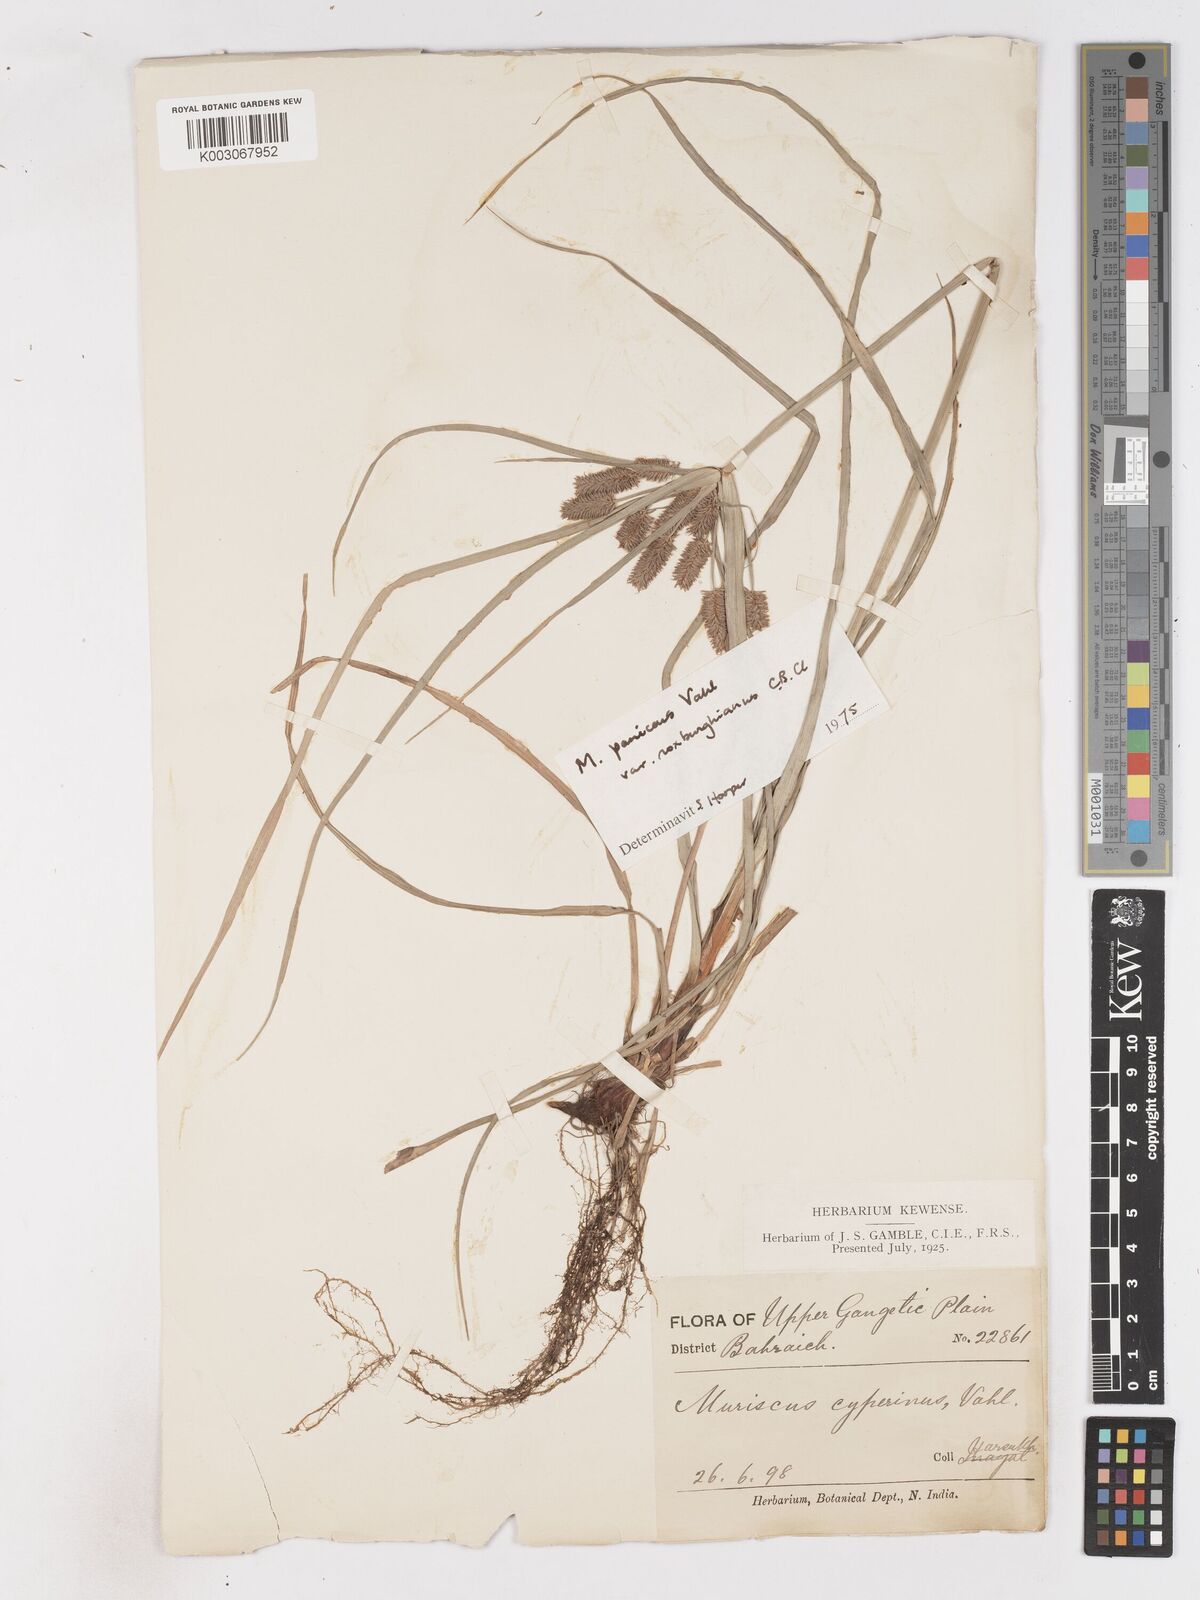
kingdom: Plantae
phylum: Tracheophyta
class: Liliopsida
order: Poales
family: Cyperaceae
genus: Cyperus
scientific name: Cyperus paniceus
